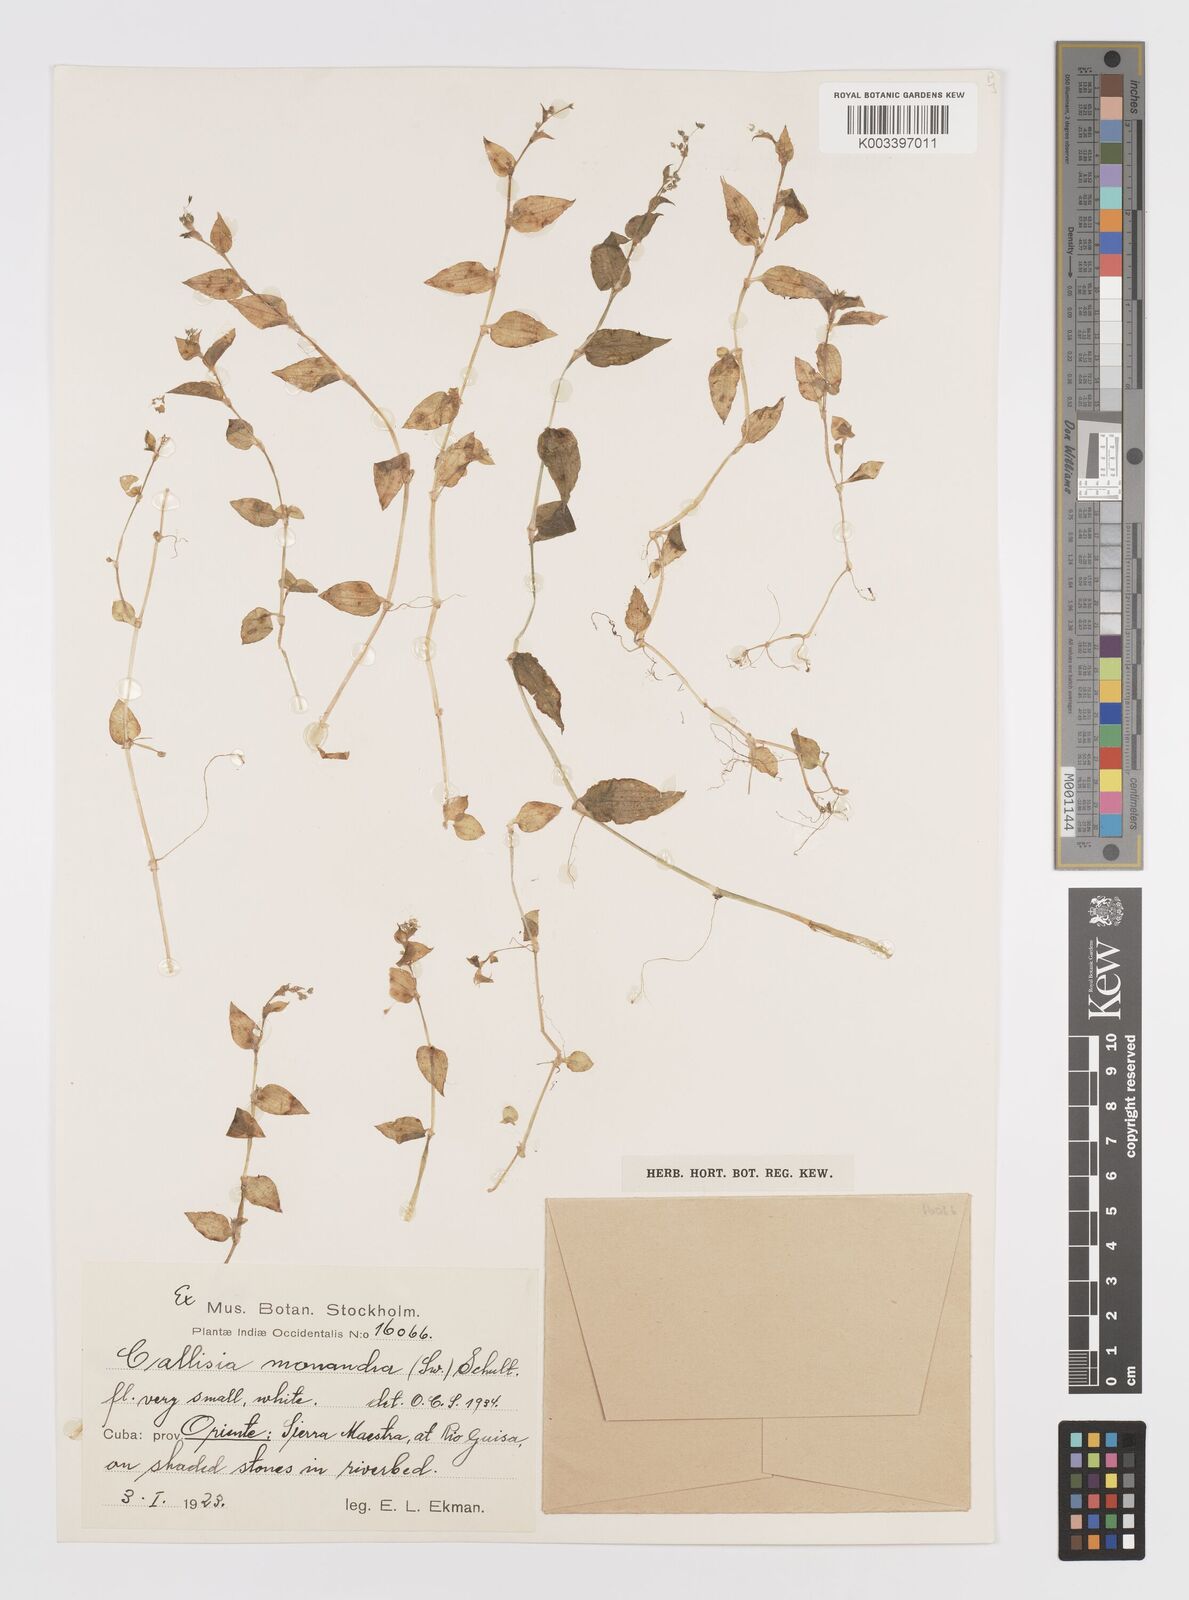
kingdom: Plantae
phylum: Tracheophyta
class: Liliopsida
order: Commelinales
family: Commelinaceae
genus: Callisia
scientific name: Callisia monandra
